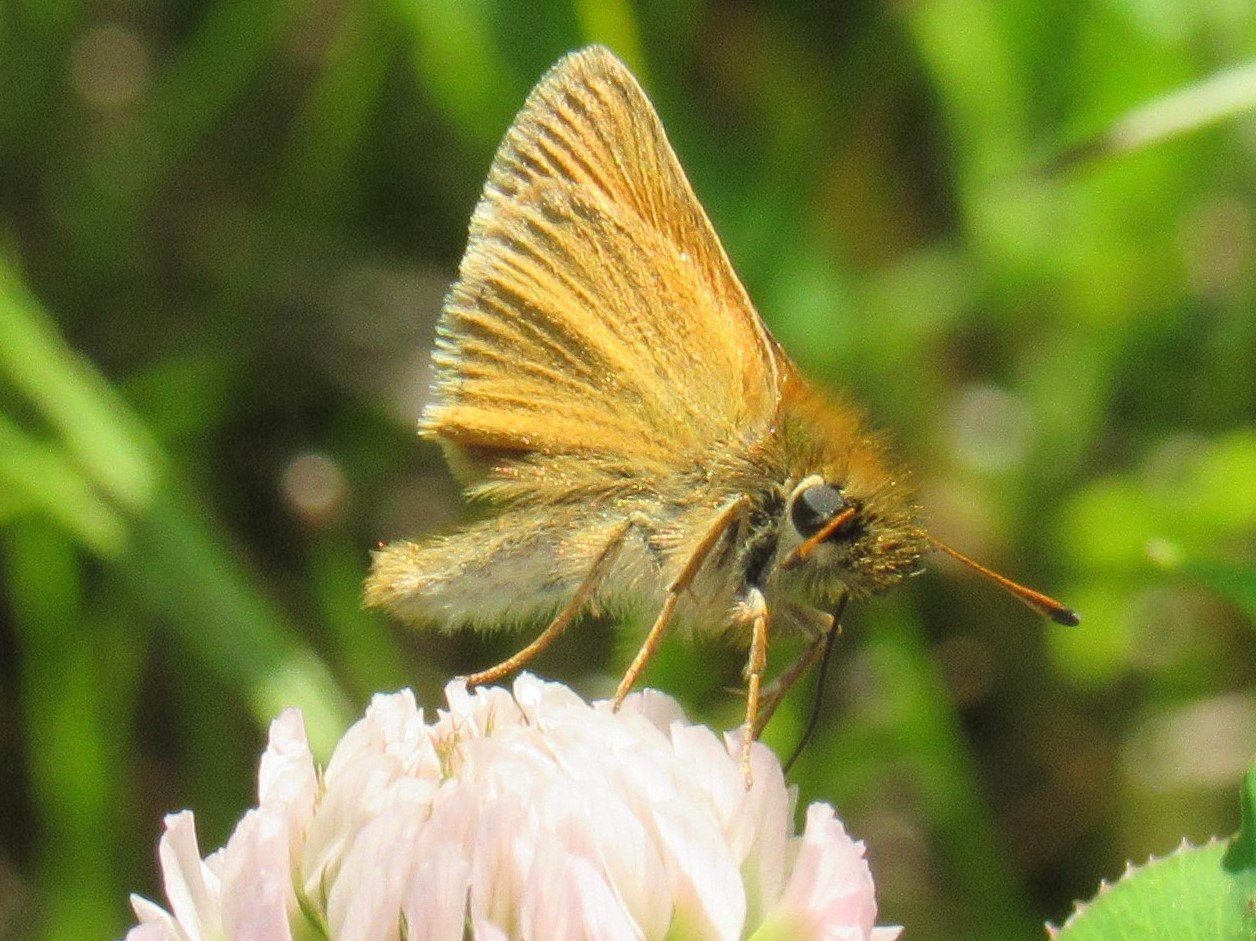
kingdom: Animalia
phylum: Arthropoda
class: Insecta
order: Lepidoptera
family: Hesperiidae
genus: Thymelicus
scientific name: Thymelicus lineola
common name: European Skipper
